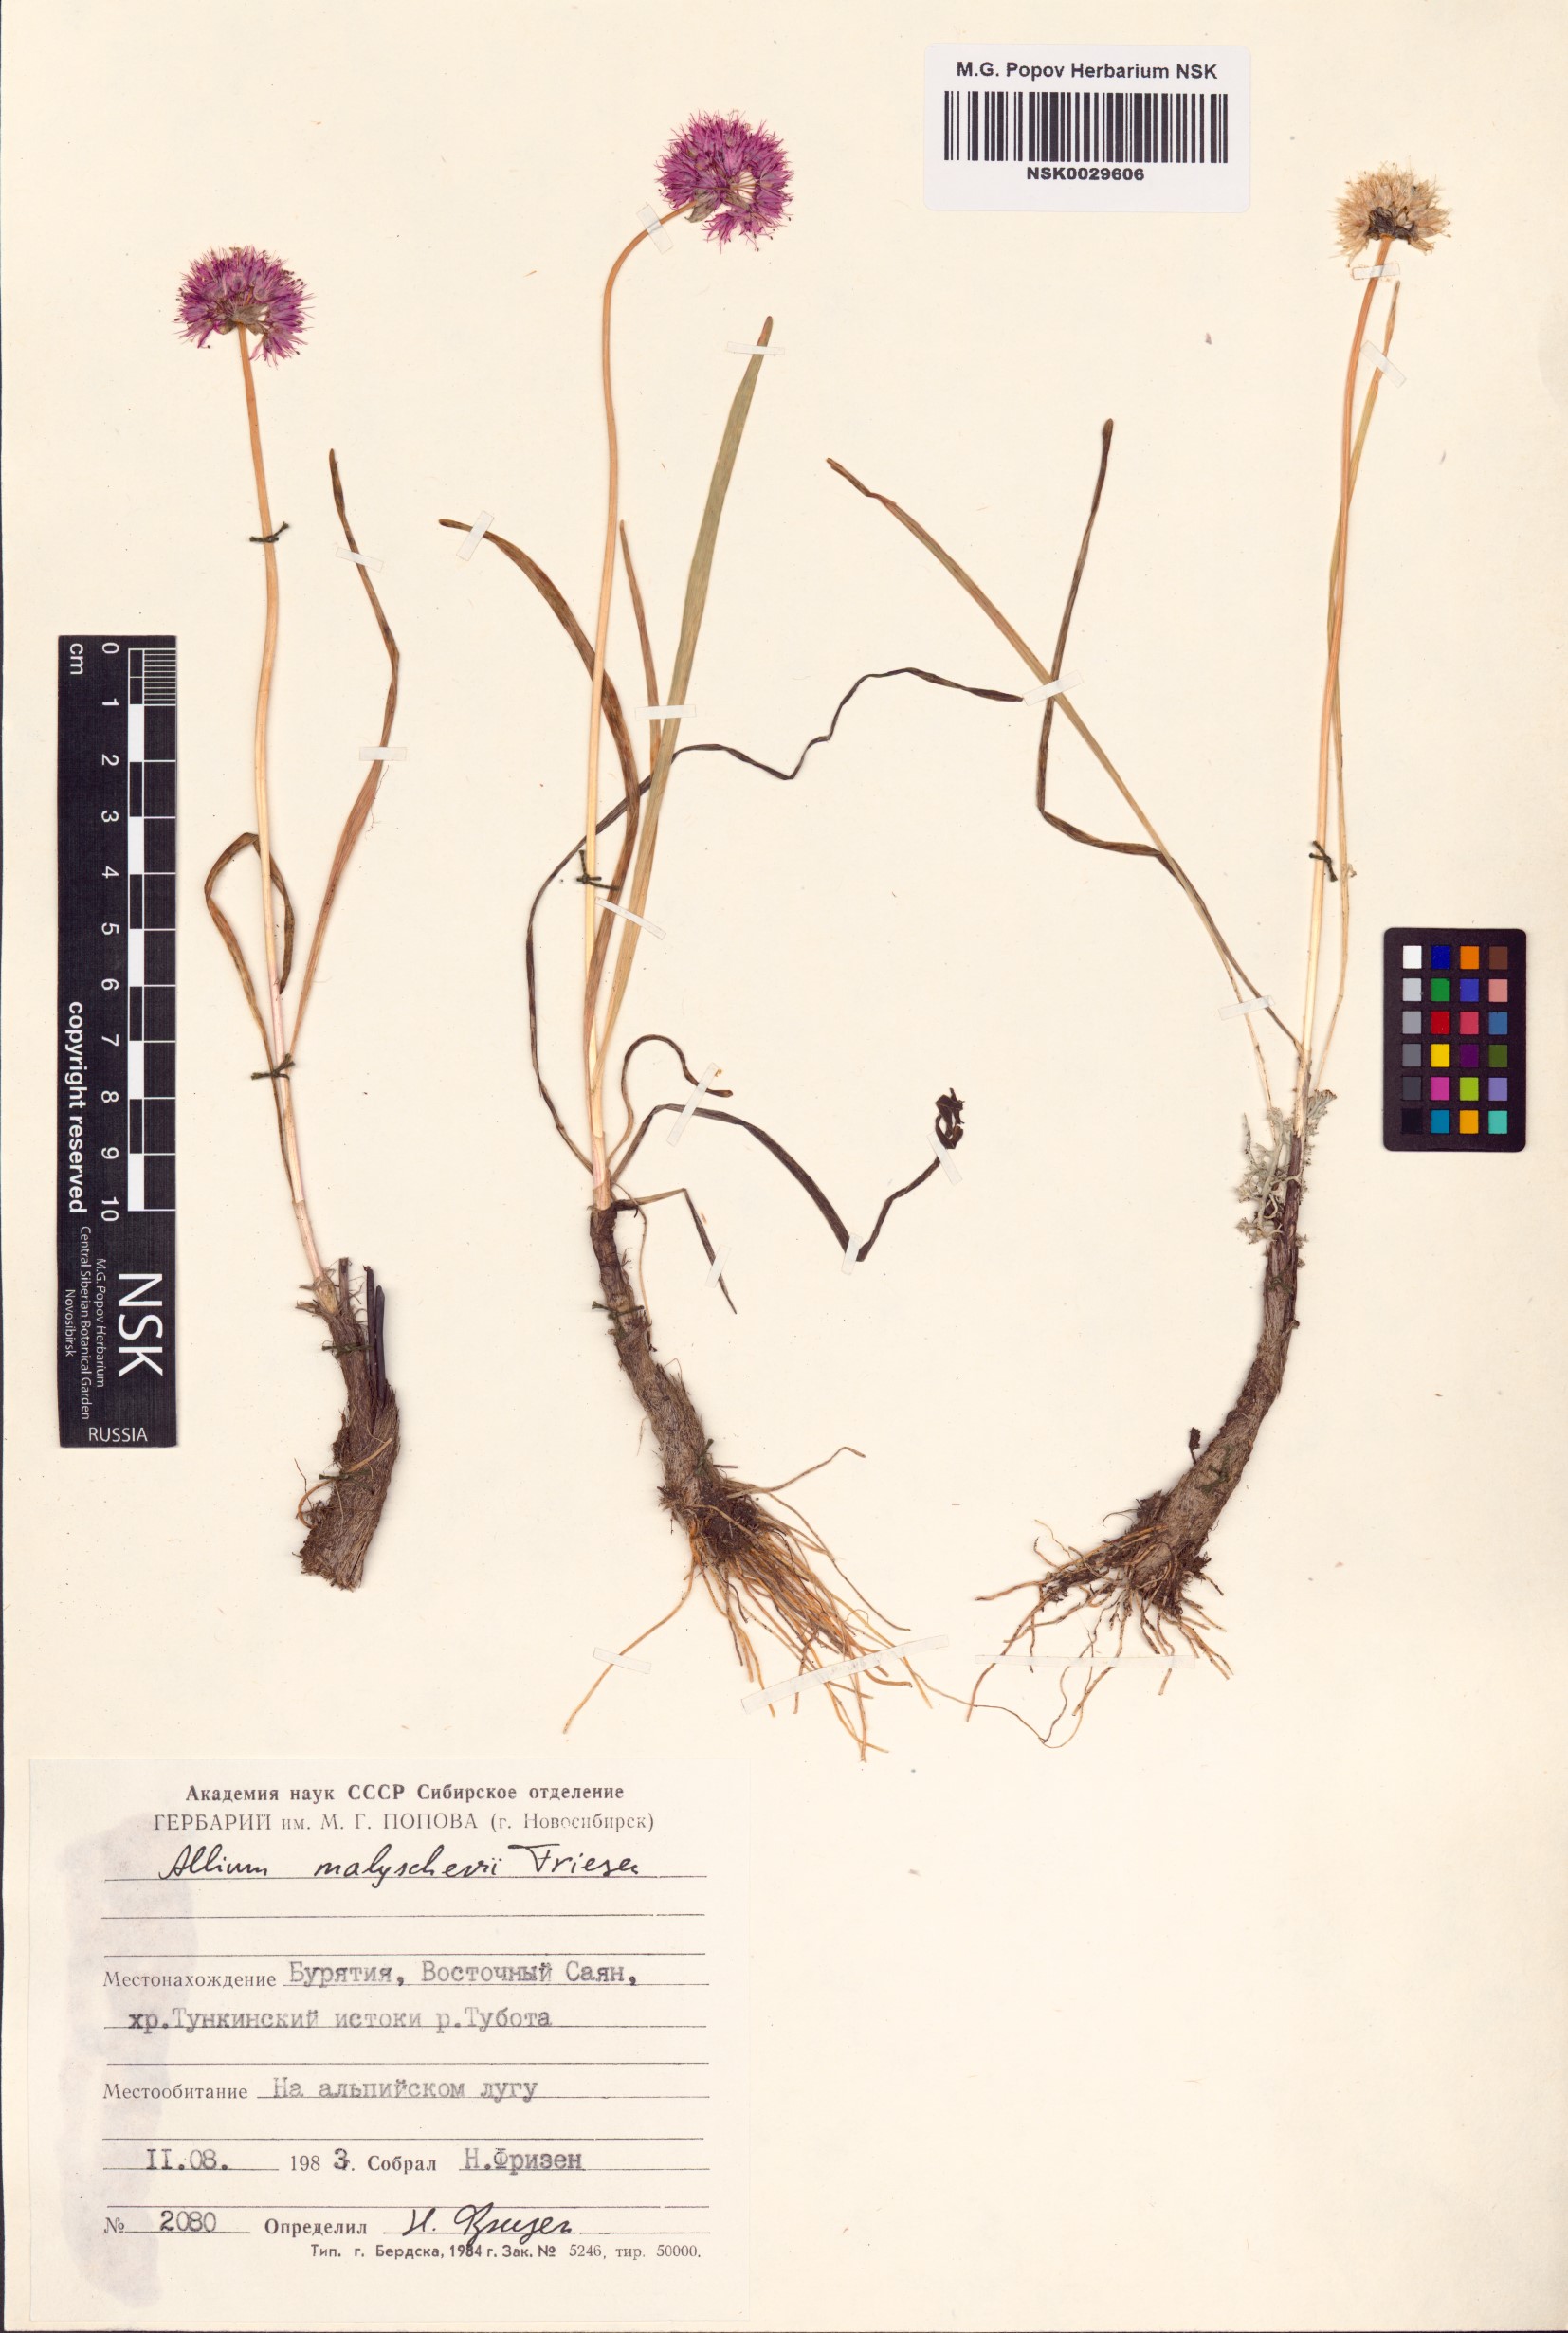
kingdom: Plantae
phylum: Tracheophyta
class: Liliopsida
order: Asparagales
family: Amaryllidaceae
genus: Allium
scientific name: Allium malyschevii
